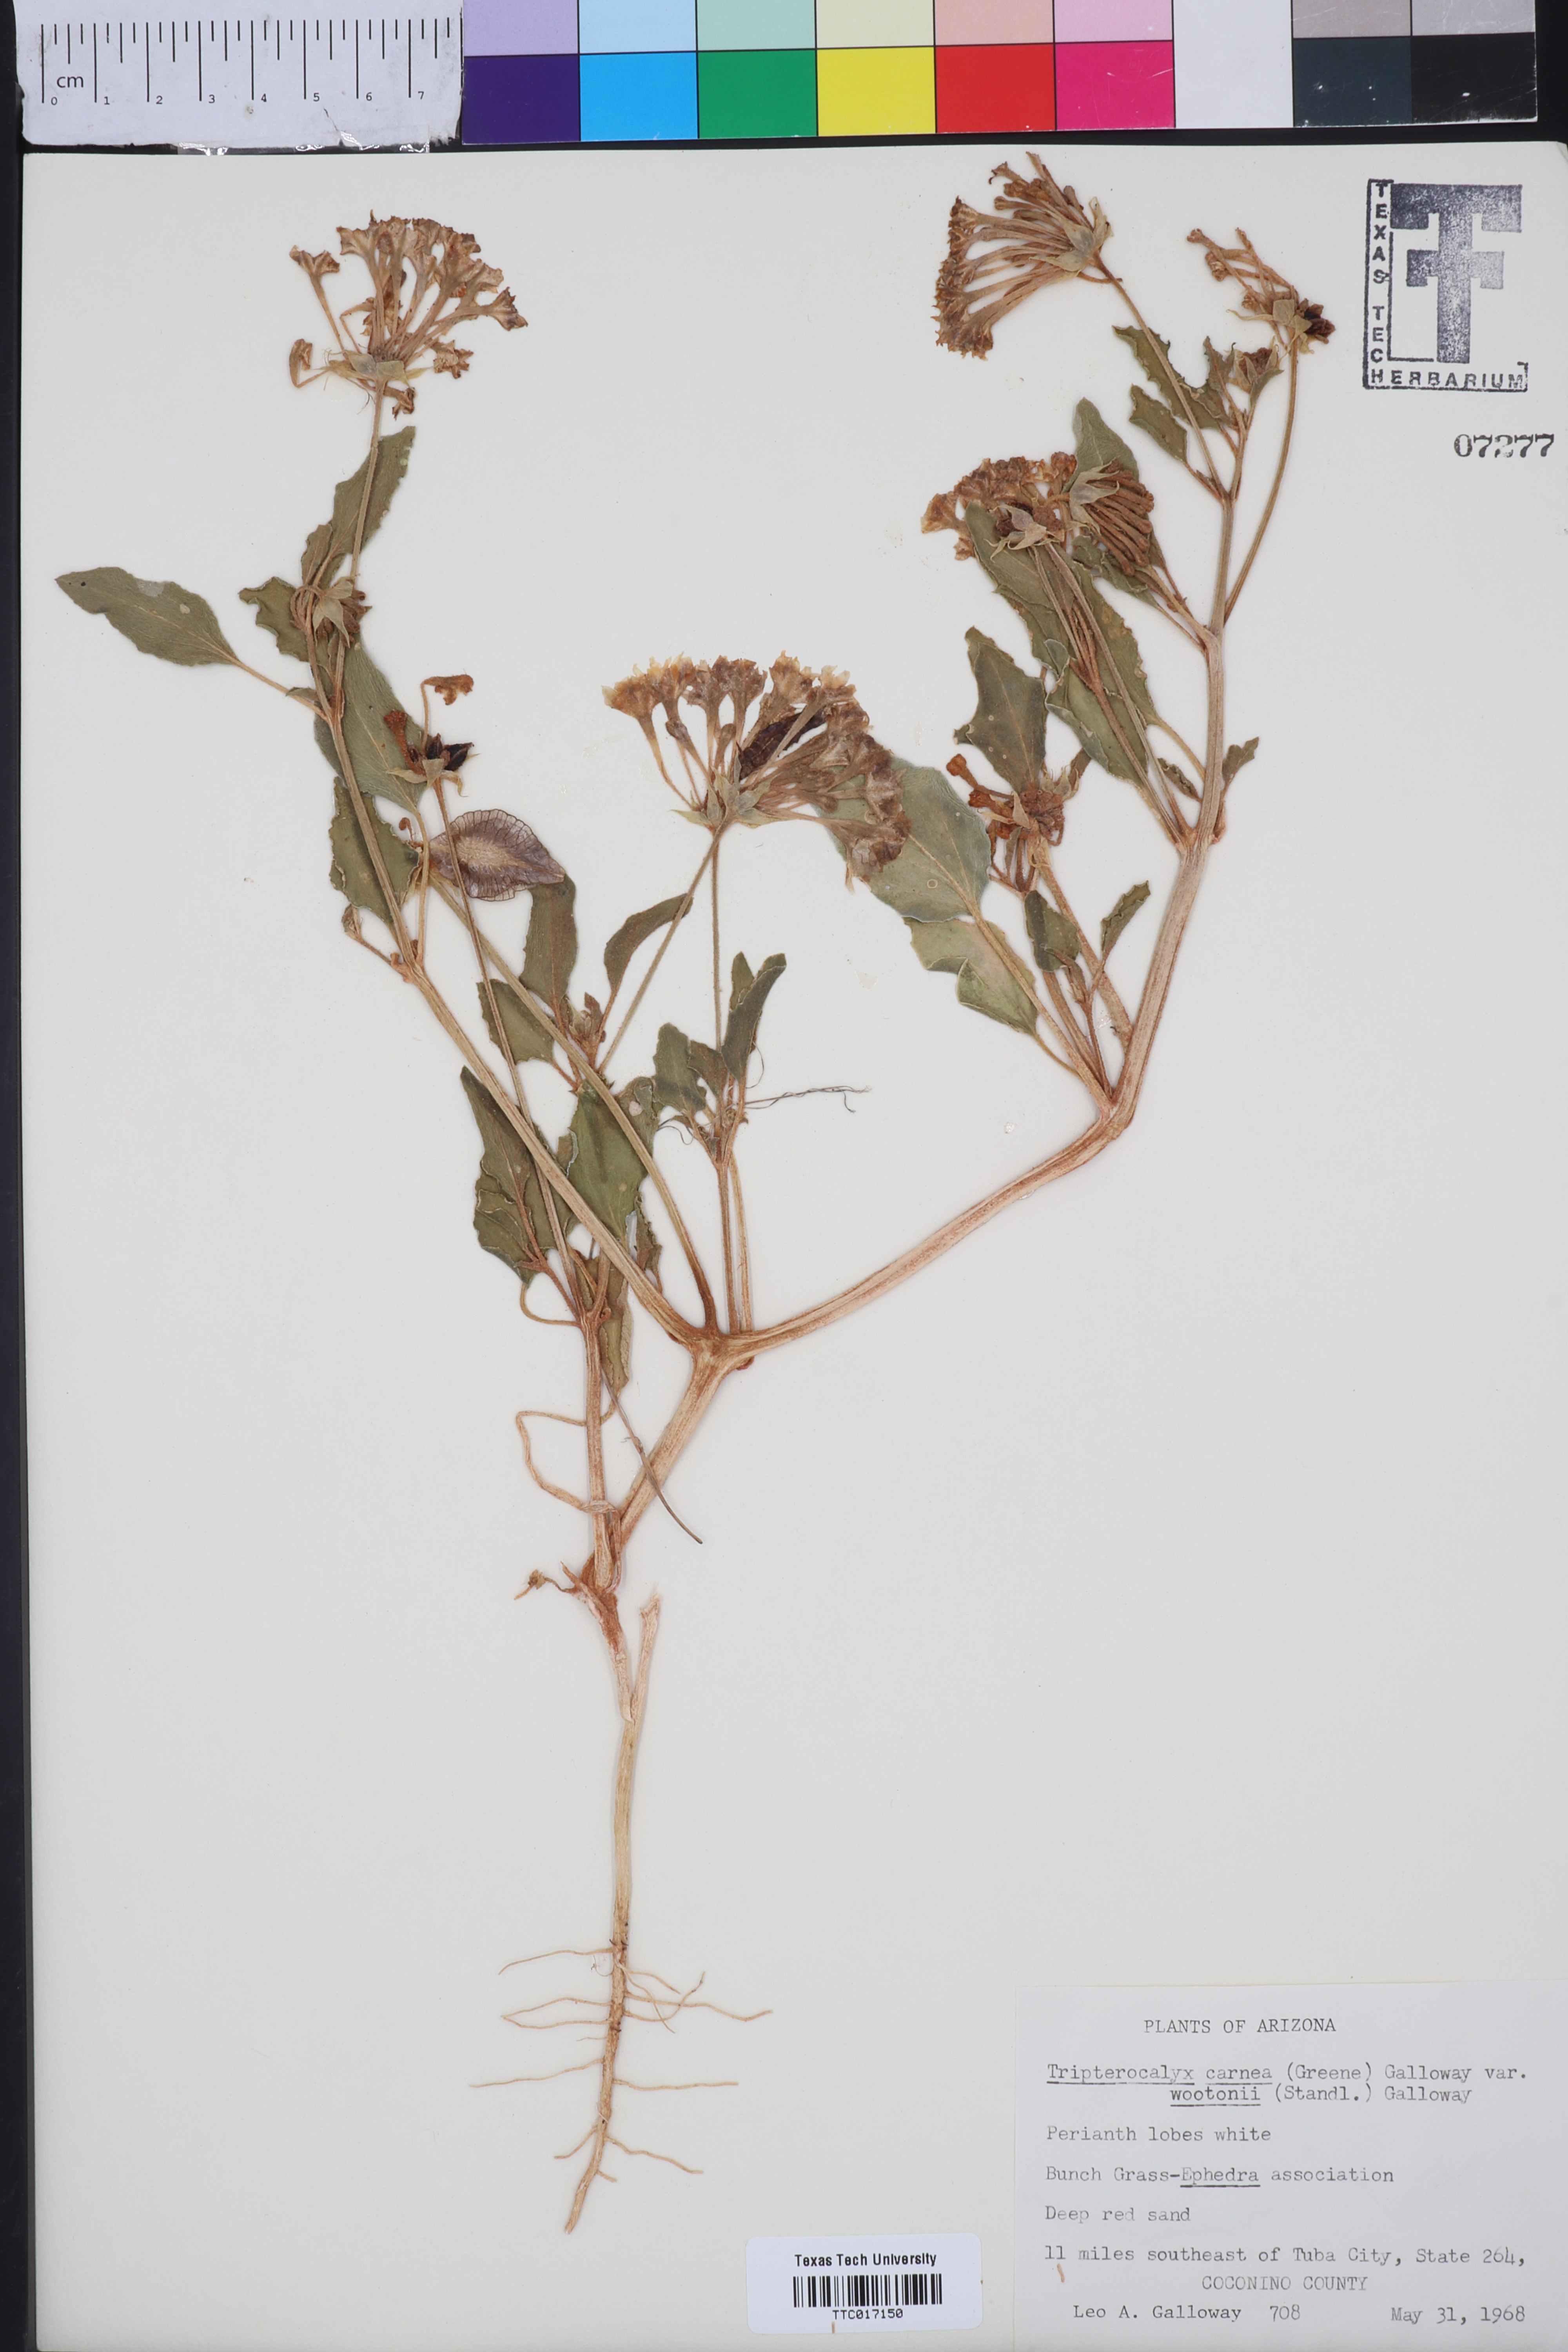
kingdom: Plantae
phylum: Tracheophyta
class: Magnoliopsida
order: Caryophyllales
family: Nyctaginaceae
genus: Tripterocalyx
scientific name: Tripterocalyx wootonii
